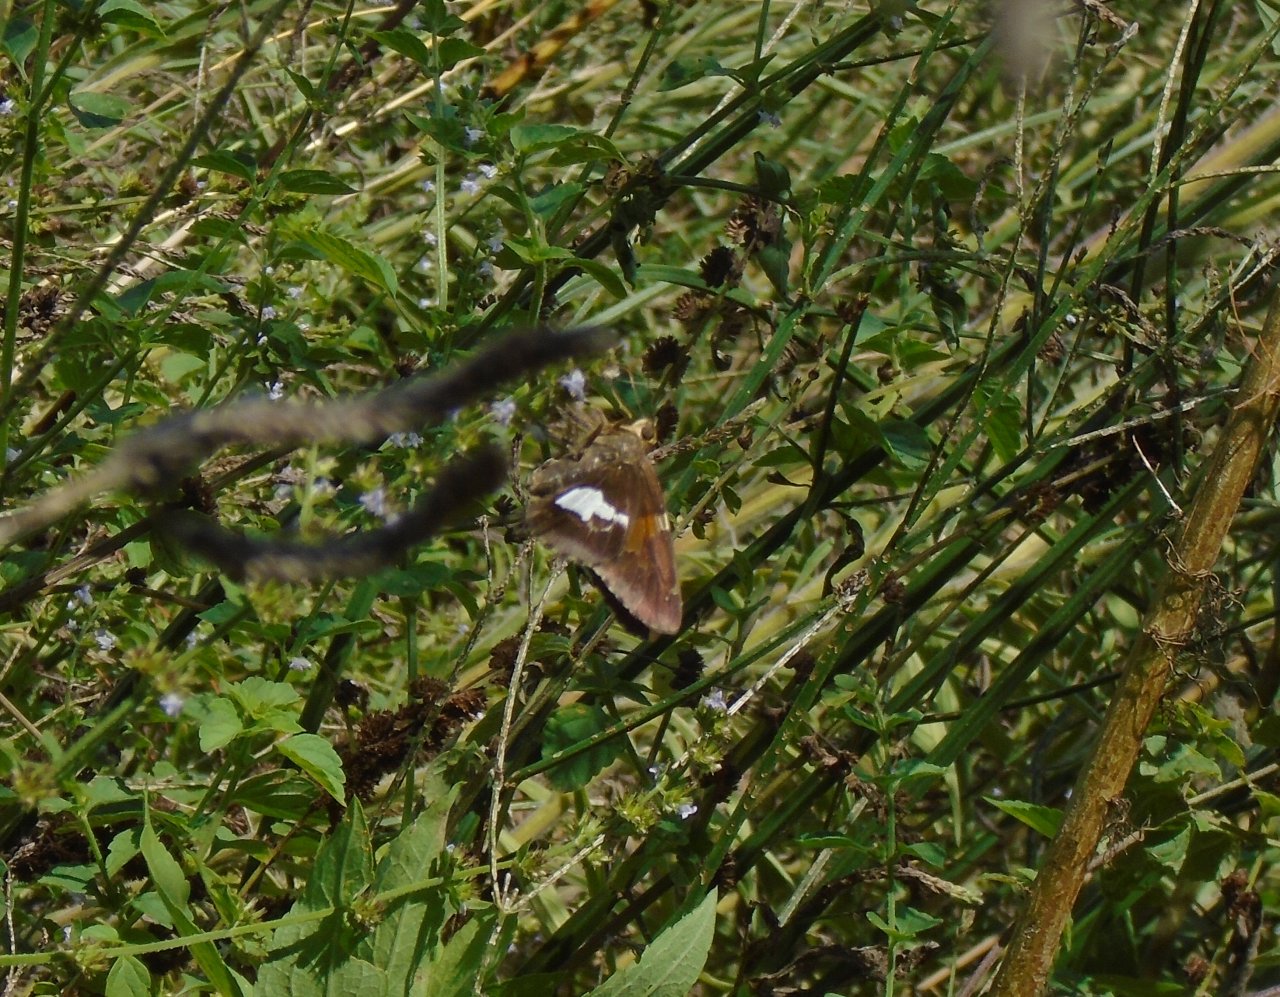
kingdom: Animalia
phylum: Arthropoda
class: Insecta
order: Lepidoptera
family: Hesperiidae
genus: Epargyreus
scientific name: Epargyreus clarus
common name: Silver-spotted Skipper
